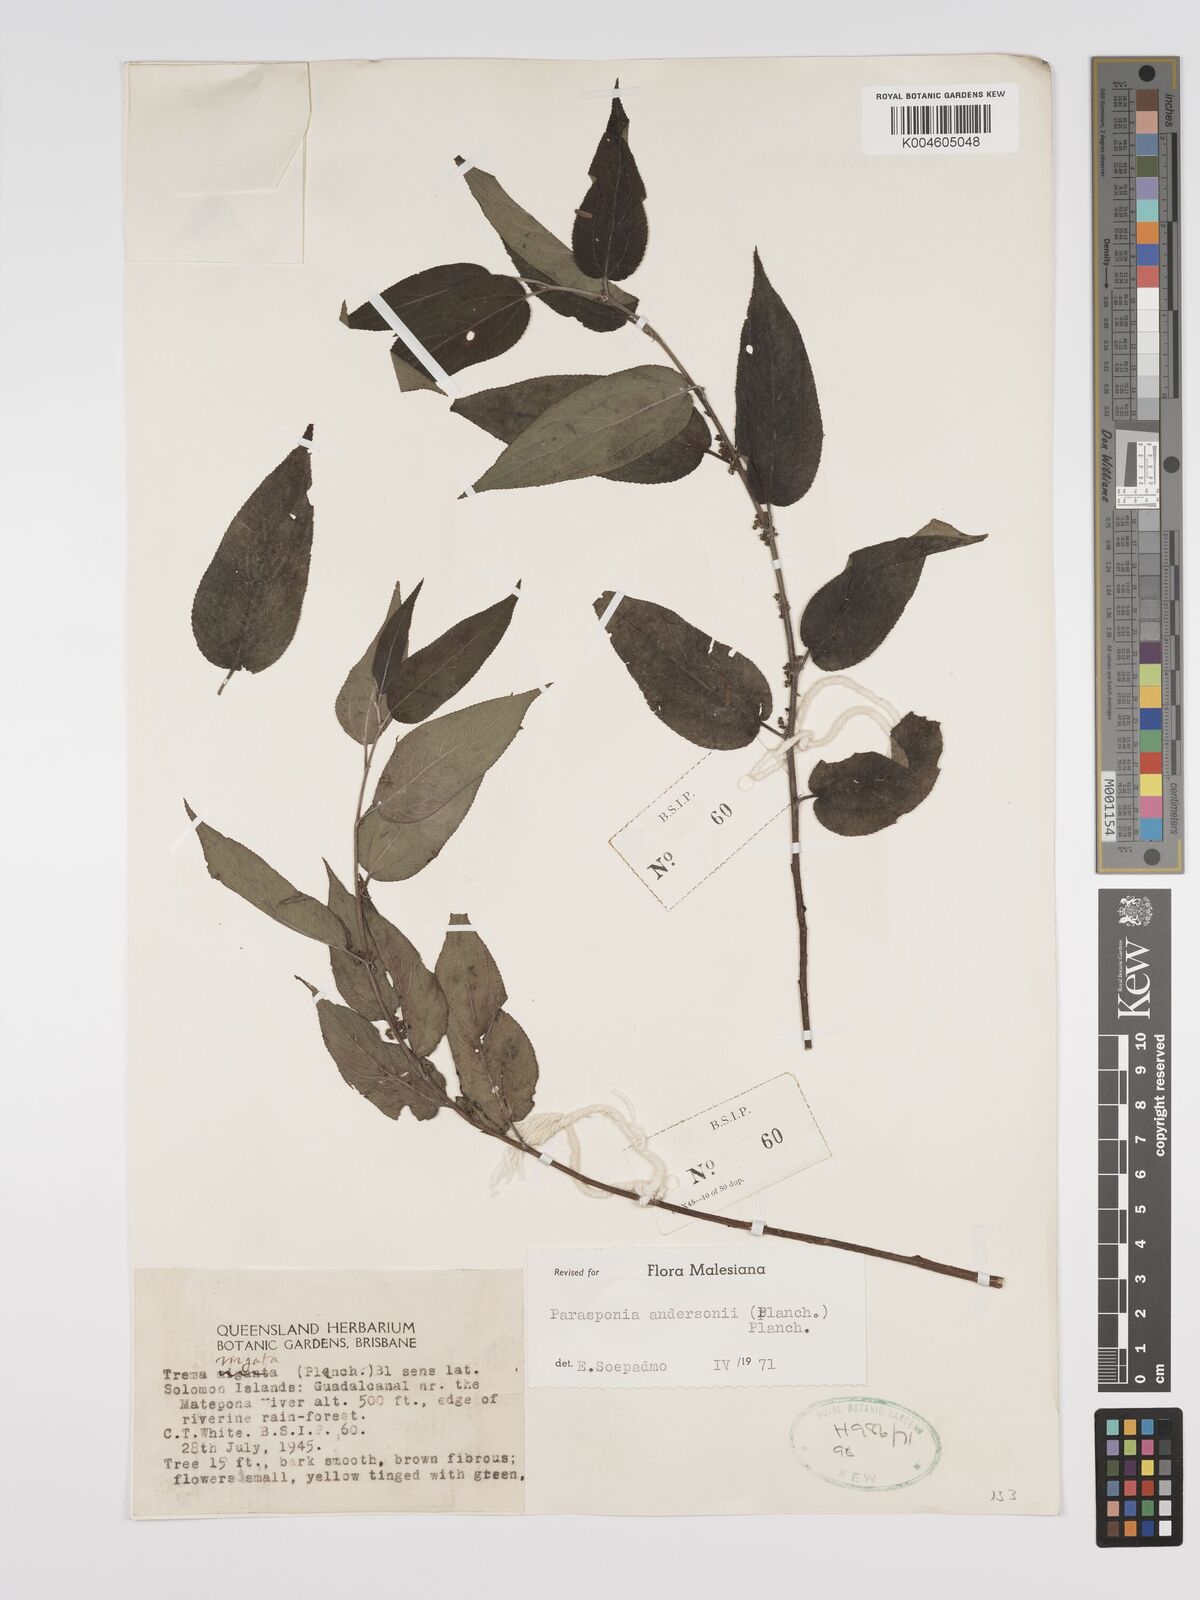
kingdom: Plantae
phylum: Tracheophyta
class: Magnoliopsida
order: Rosales
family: Cannabaceae
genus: Trema
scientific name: Trema andersonii
